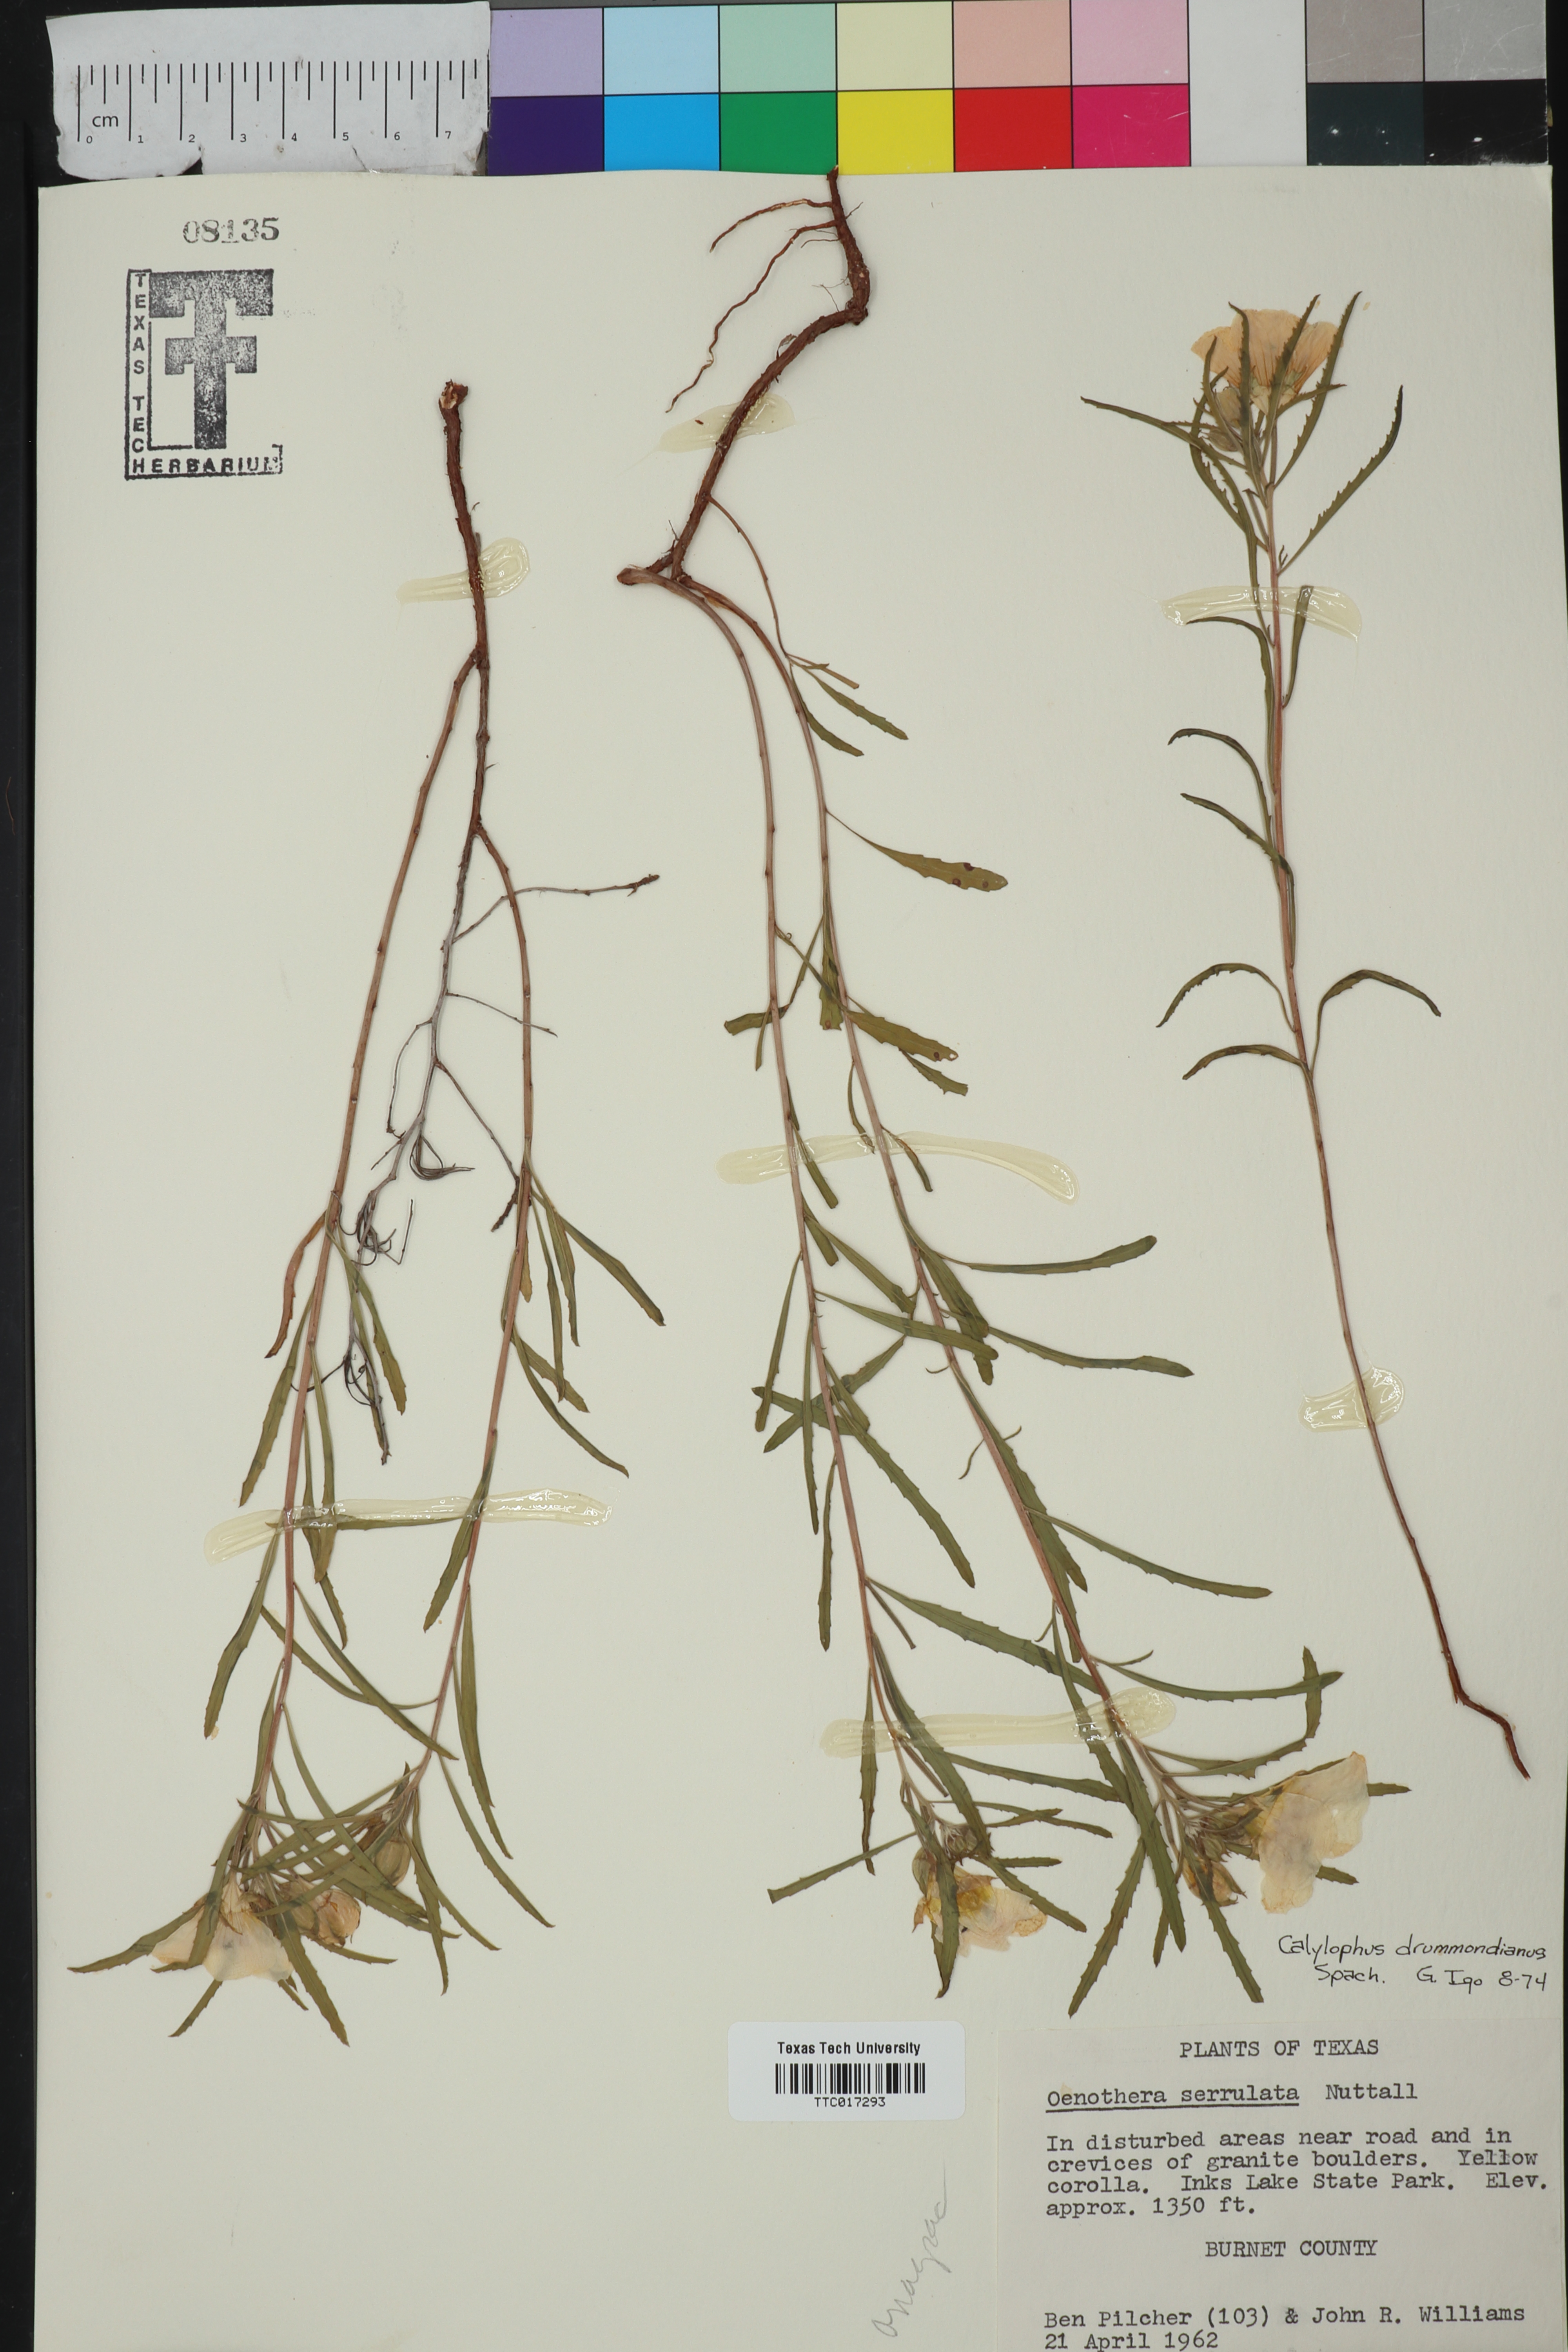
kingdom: Plantae
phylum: Tracheophyta
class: Magnoliopsida
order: Myrtales
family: Onagraceae
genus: Oenothera
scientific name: Oenothera serrulata
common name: Half-shrub calylophus
